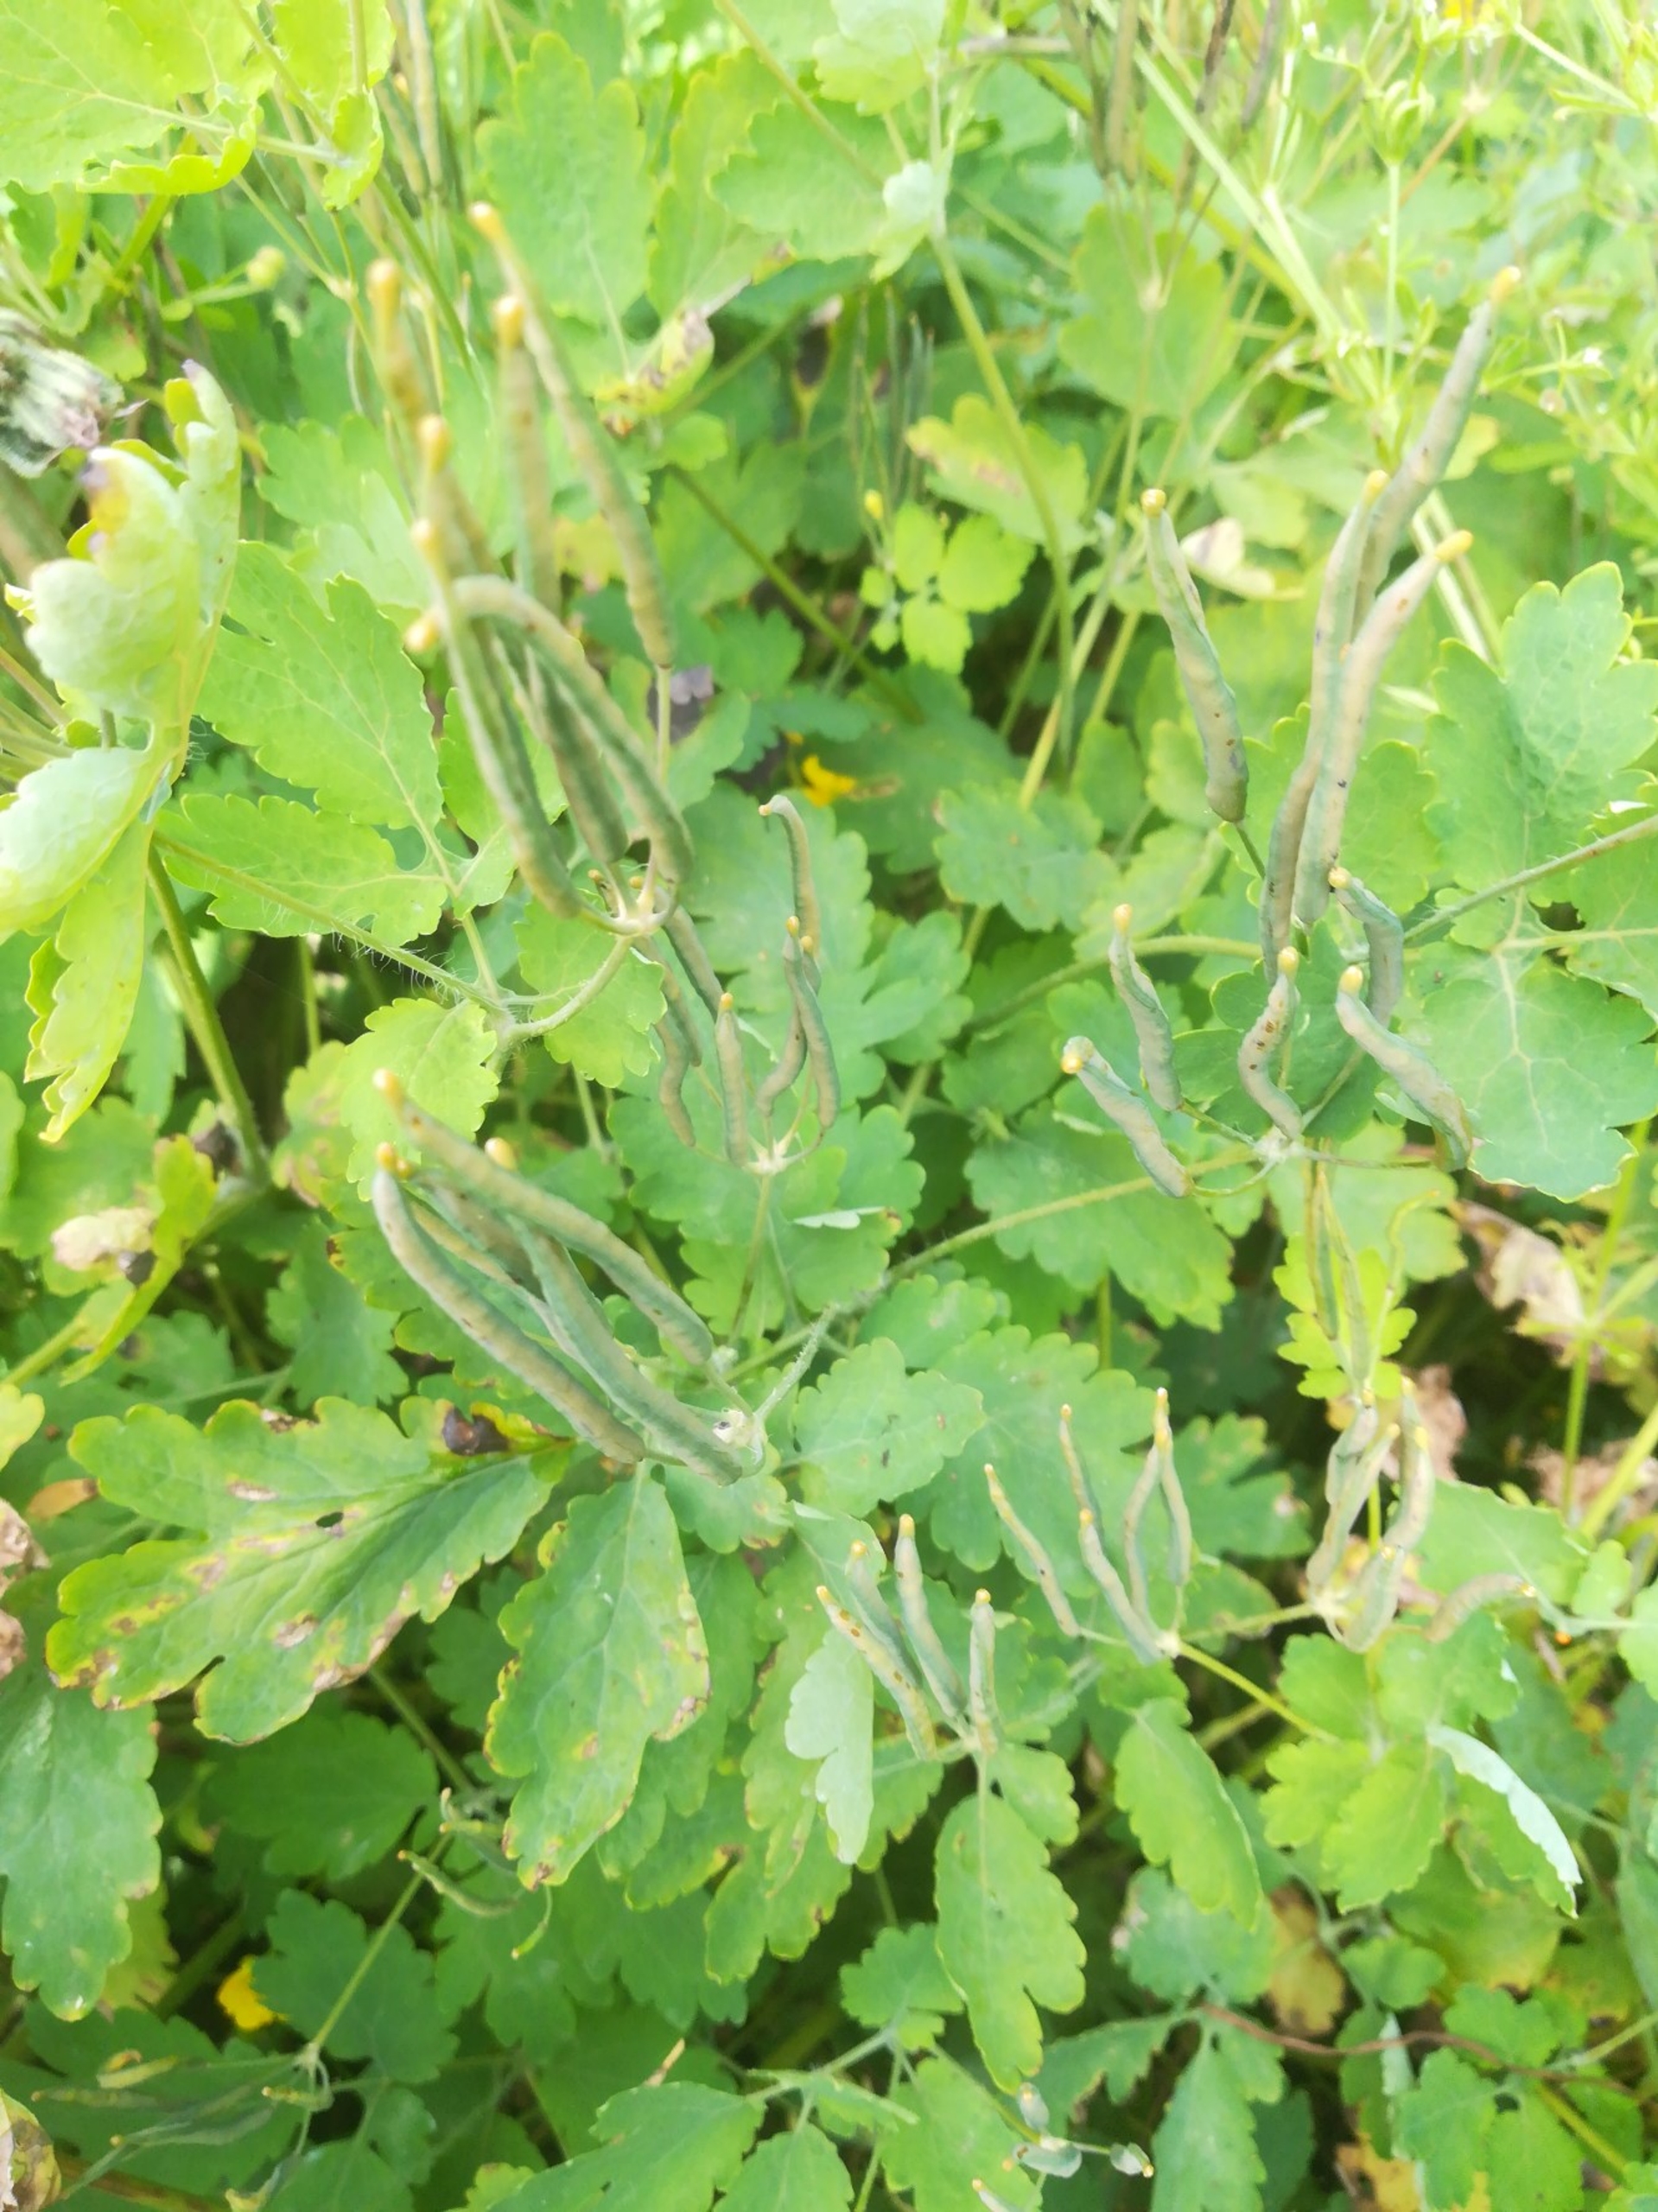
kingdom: Plantae
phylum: Tracheophyta
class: Magnoliopsida
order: Ranunculales
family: Papaveraceae
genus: Chelidonium
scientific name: Chelidonium majus
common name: Svaleurt
